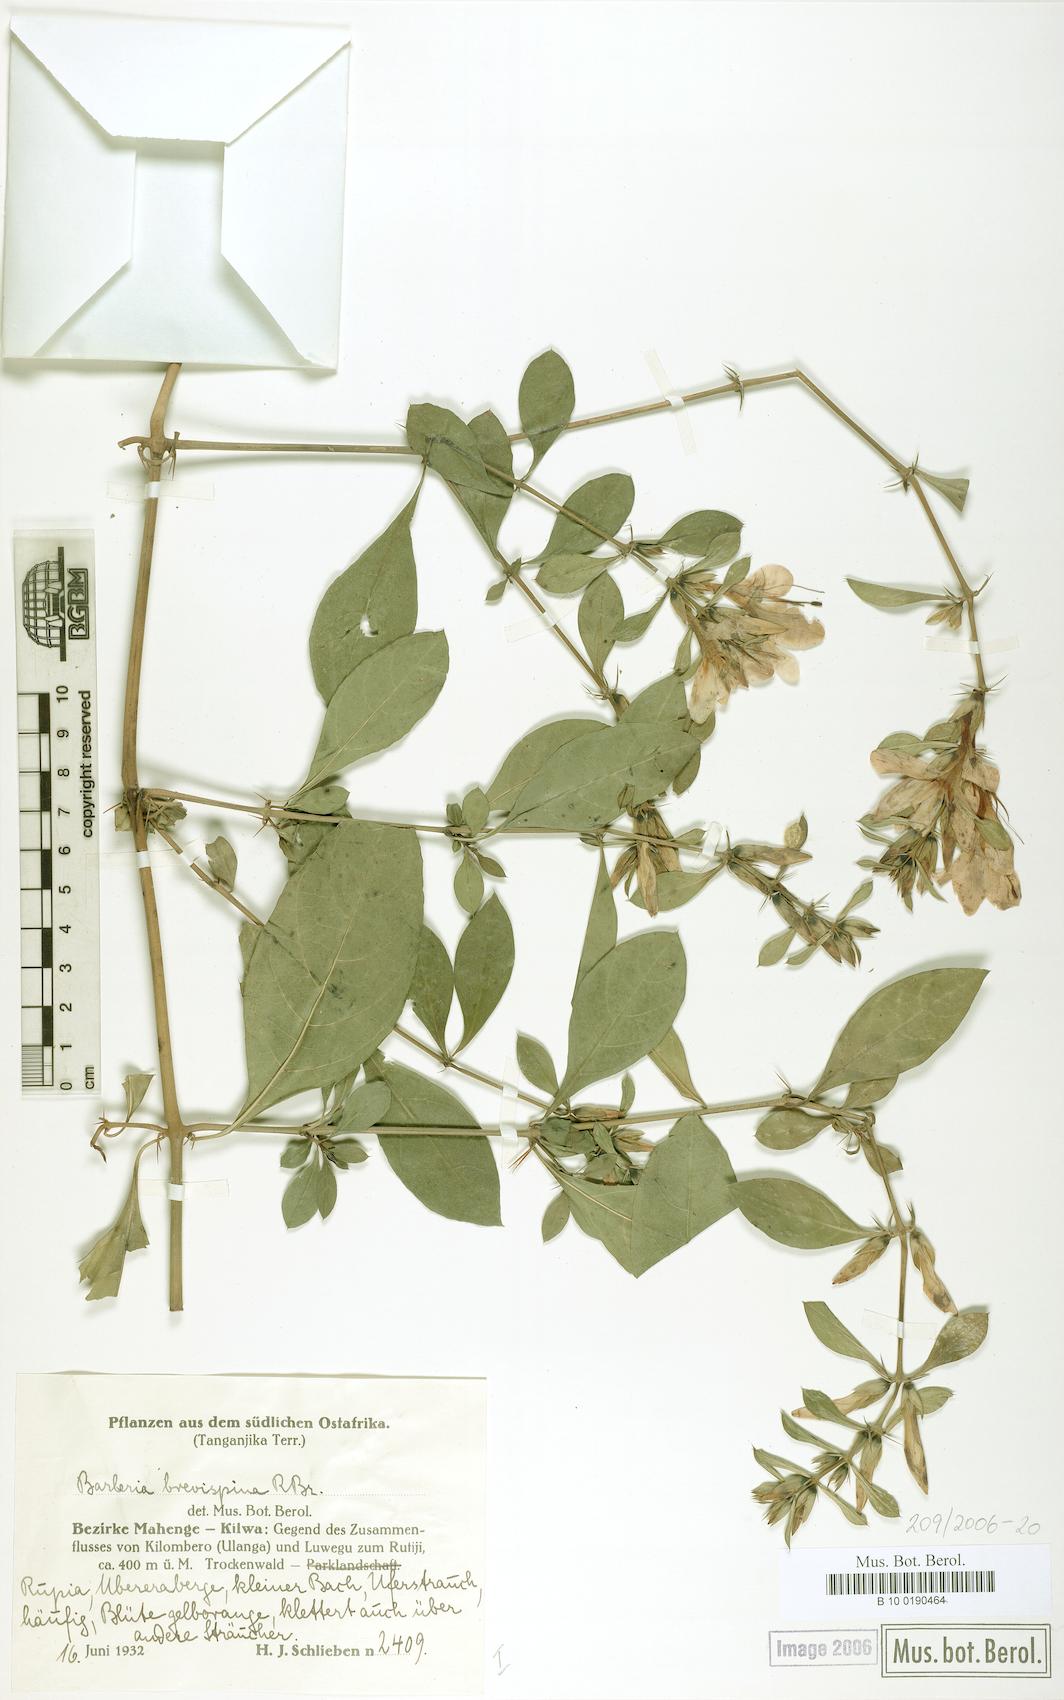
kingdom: Plantae
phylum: Tracheophyta
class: Magnoliopsida
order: Lamiales
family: Acanthaceae
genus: Barleria
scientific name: Barleria quadrispina
